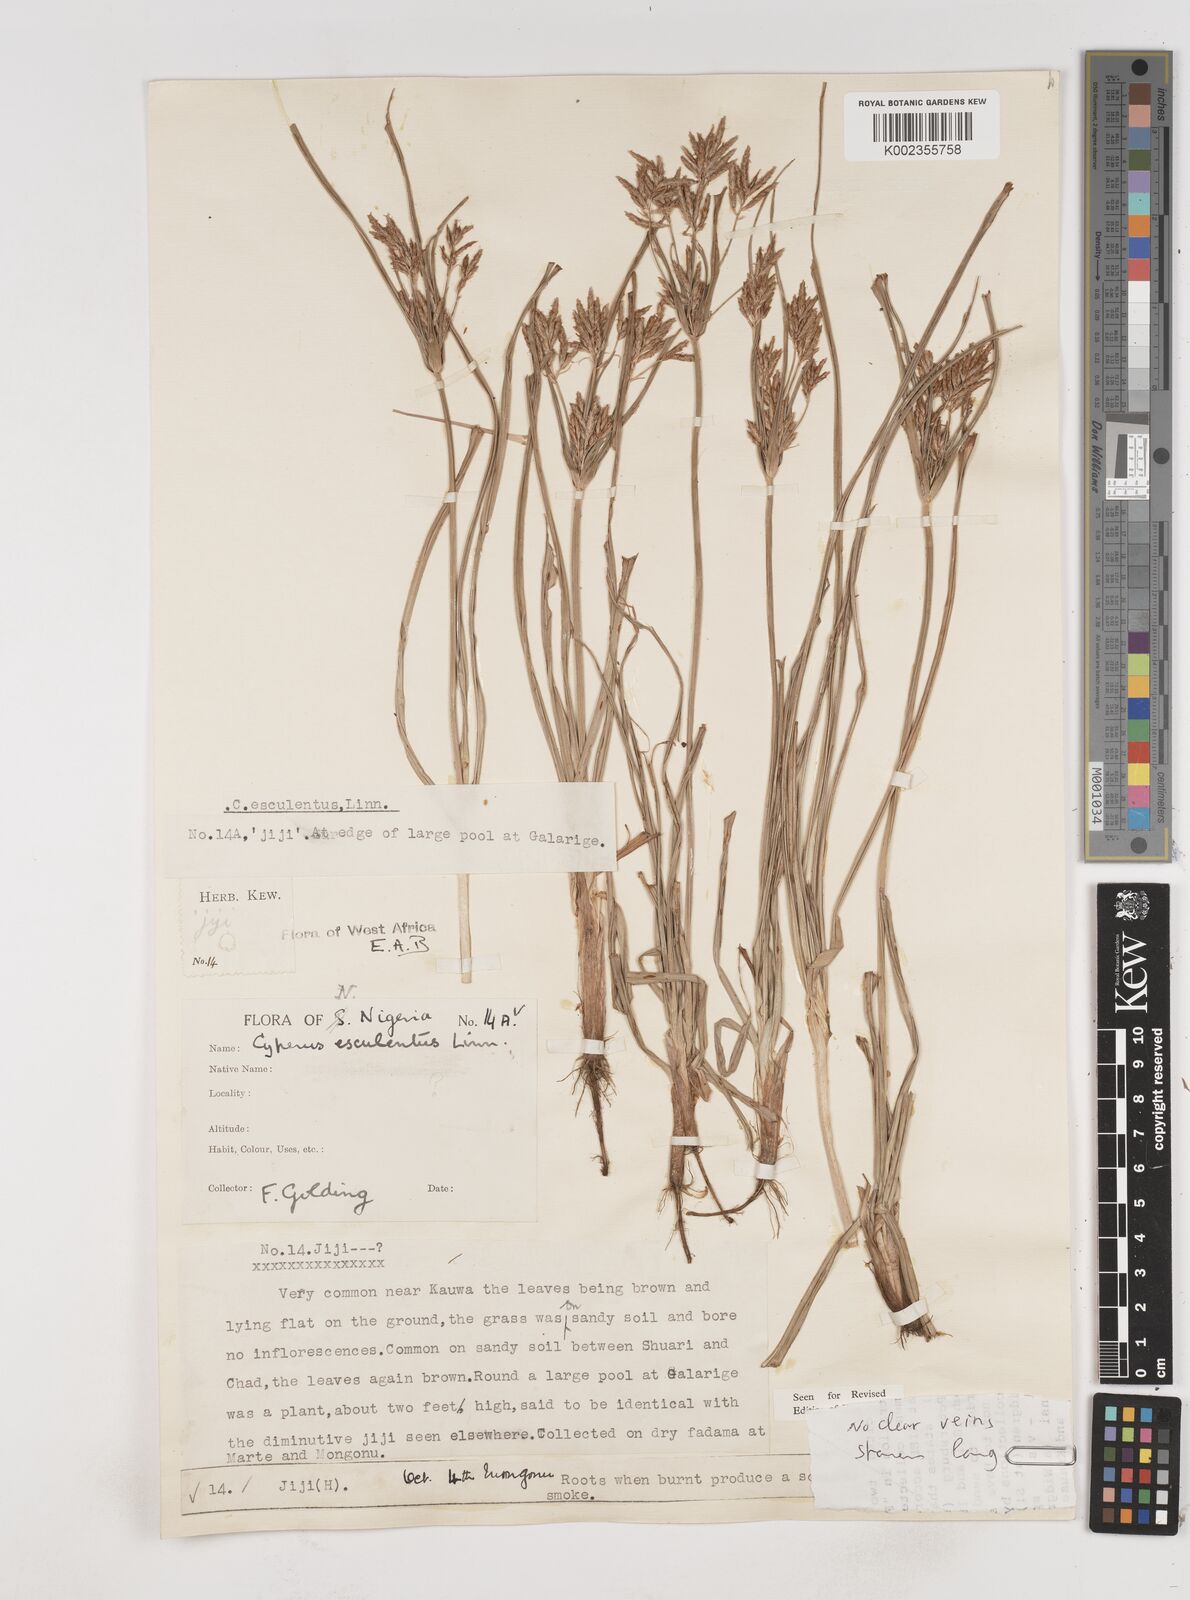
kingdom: Plantae
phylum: Tracheophyta
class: Liliopsida
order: Poales
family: Cyperaceae
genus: Cyperus
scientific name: Cyperus esculentus
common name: Yellow nutsedge
